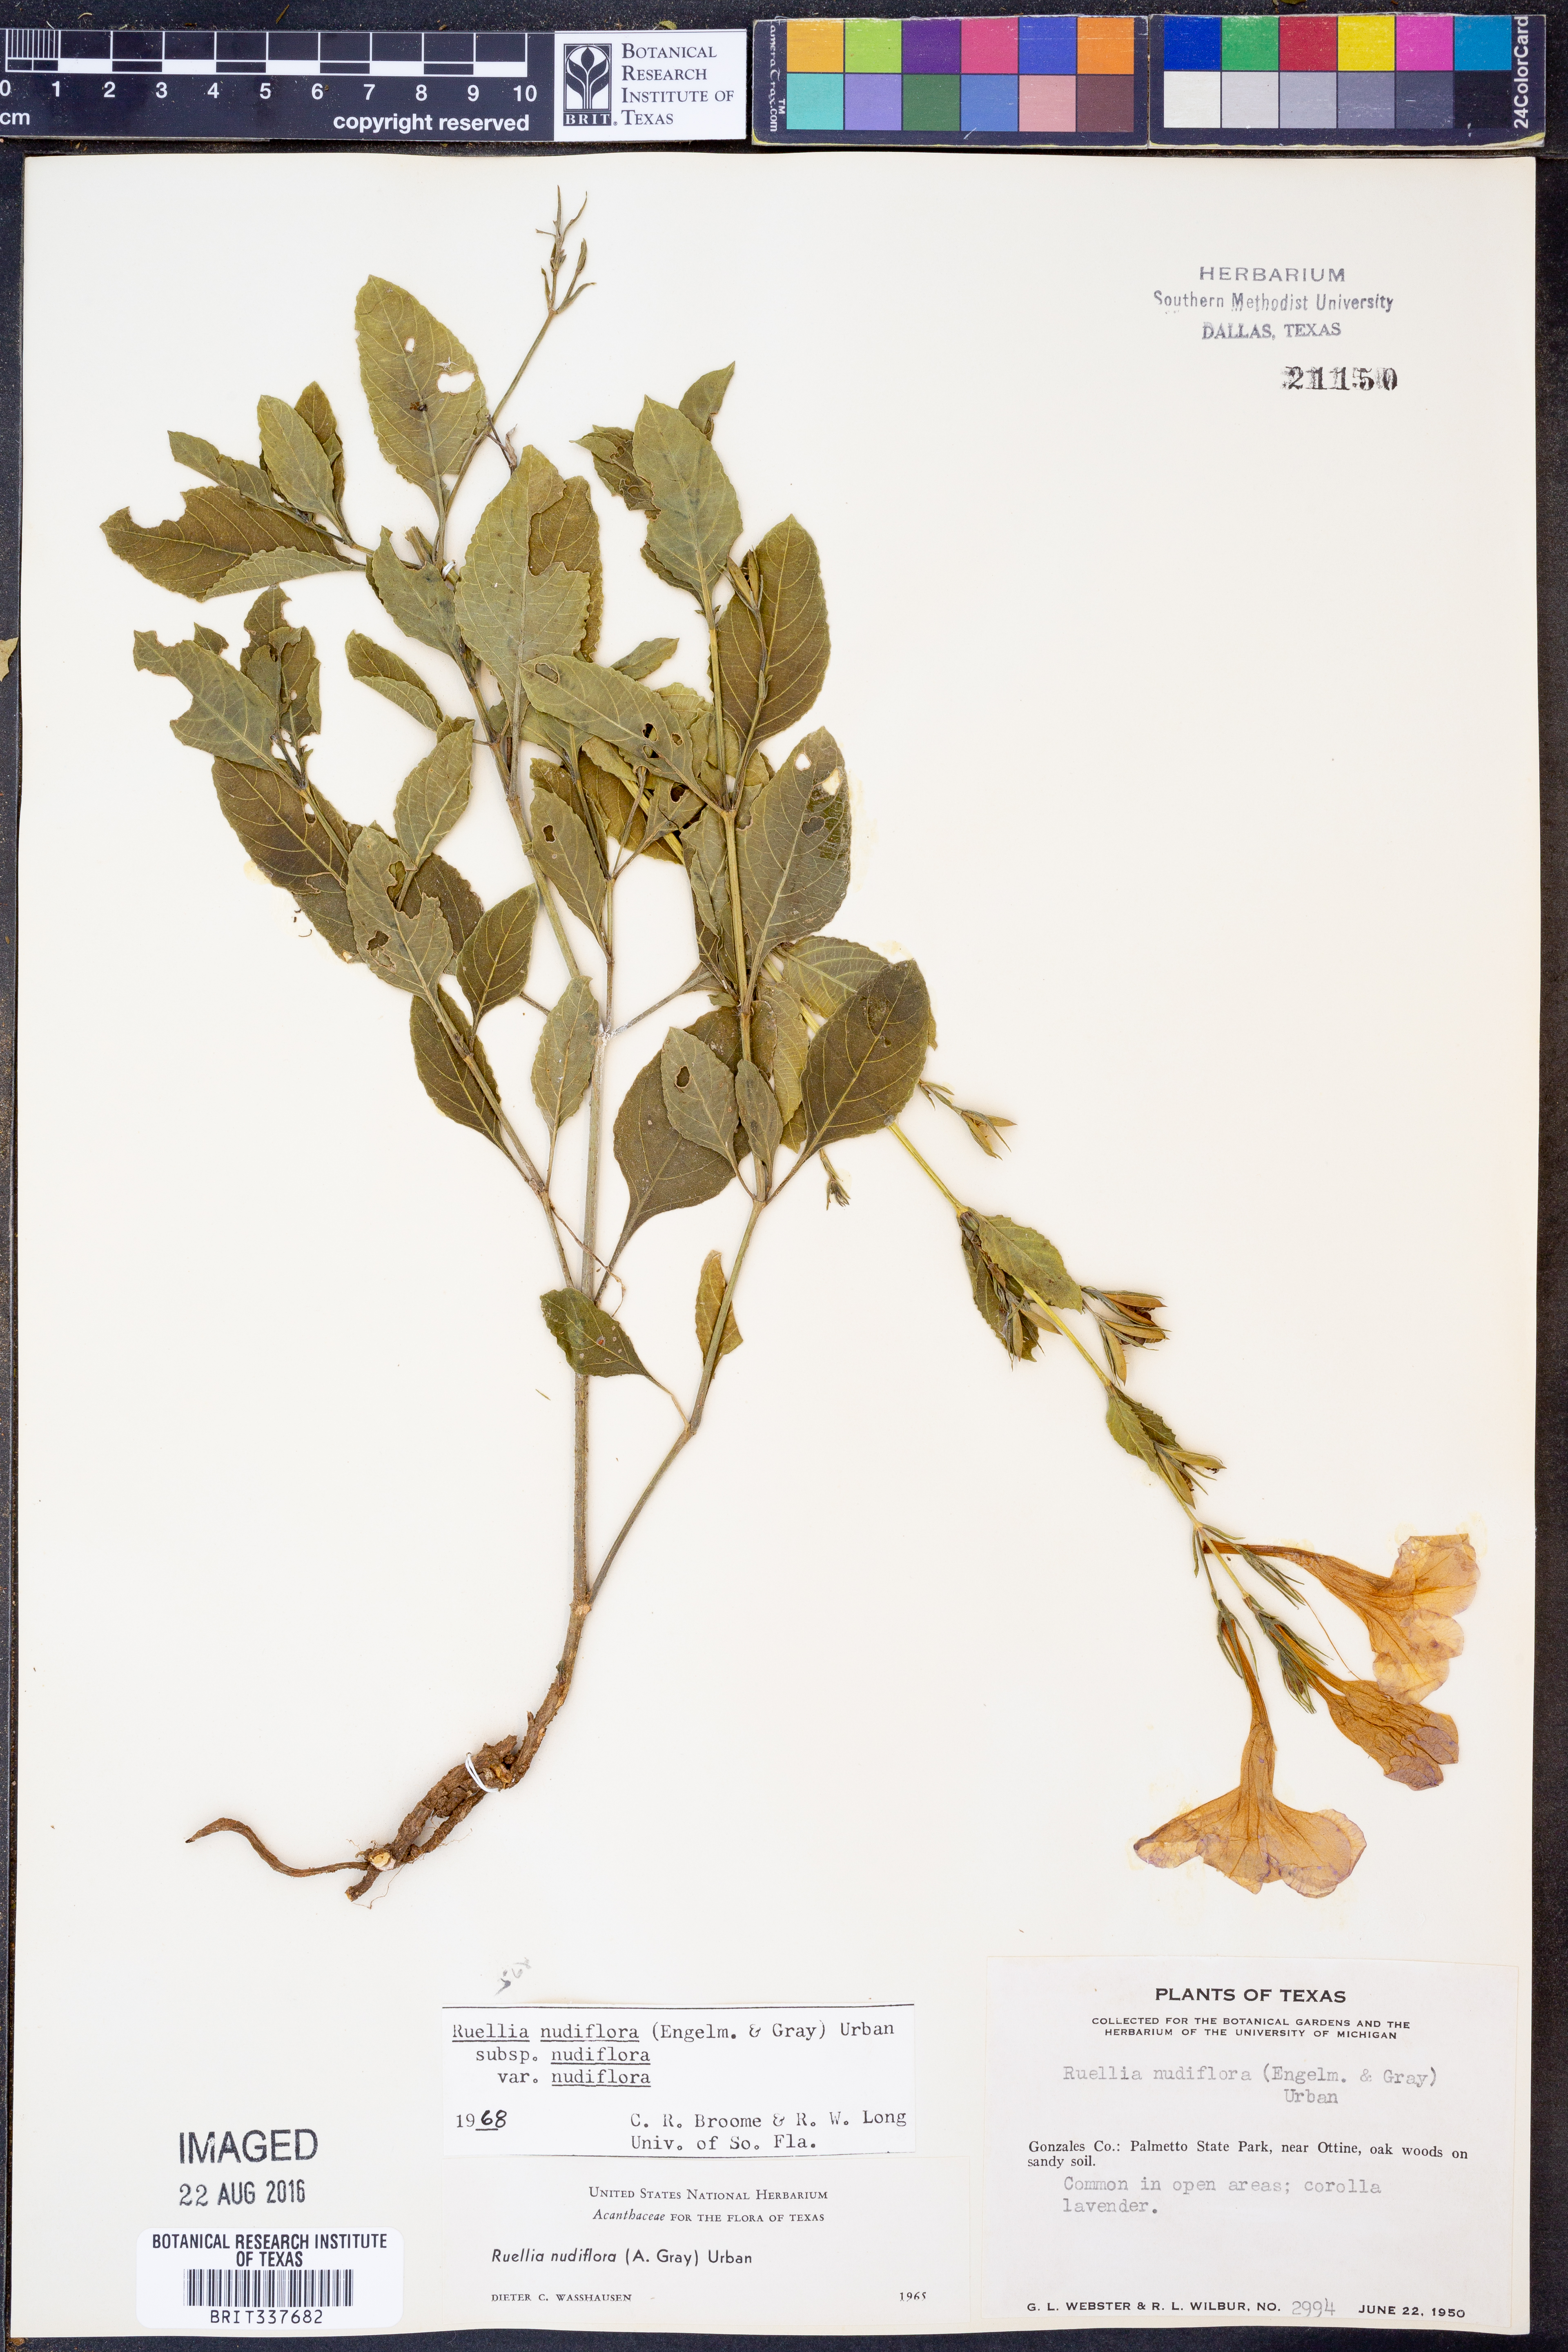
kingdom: Plantae
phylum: Tracheophyta
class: Magnoliopsida
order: Lamiales
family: Acanthaceae
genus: Ruellia
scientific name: Ruellia ciliatiflora
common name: Hairyflower wild petunia
